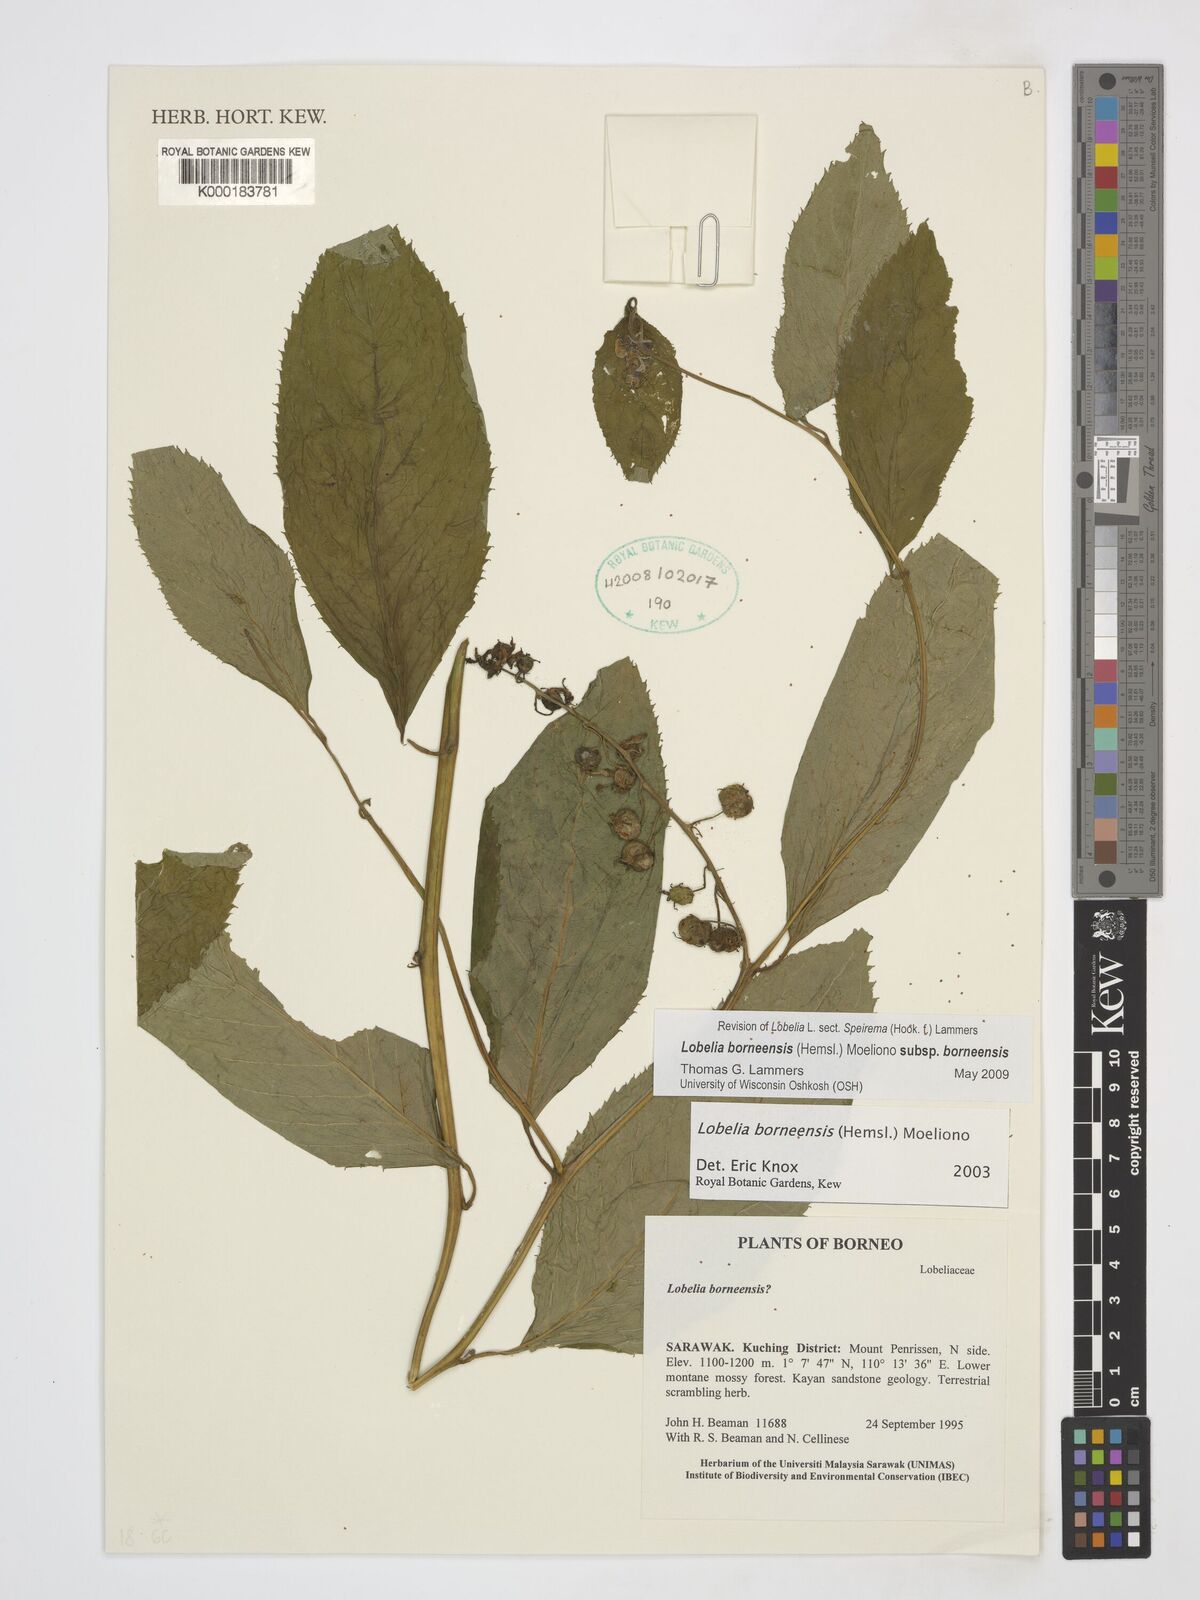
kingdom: Plantae
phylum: Tracheophyta
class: Magnoliopsida
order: Asterales
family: Campanulaceae
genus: Lobelia
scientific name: Lobelia borneensis
